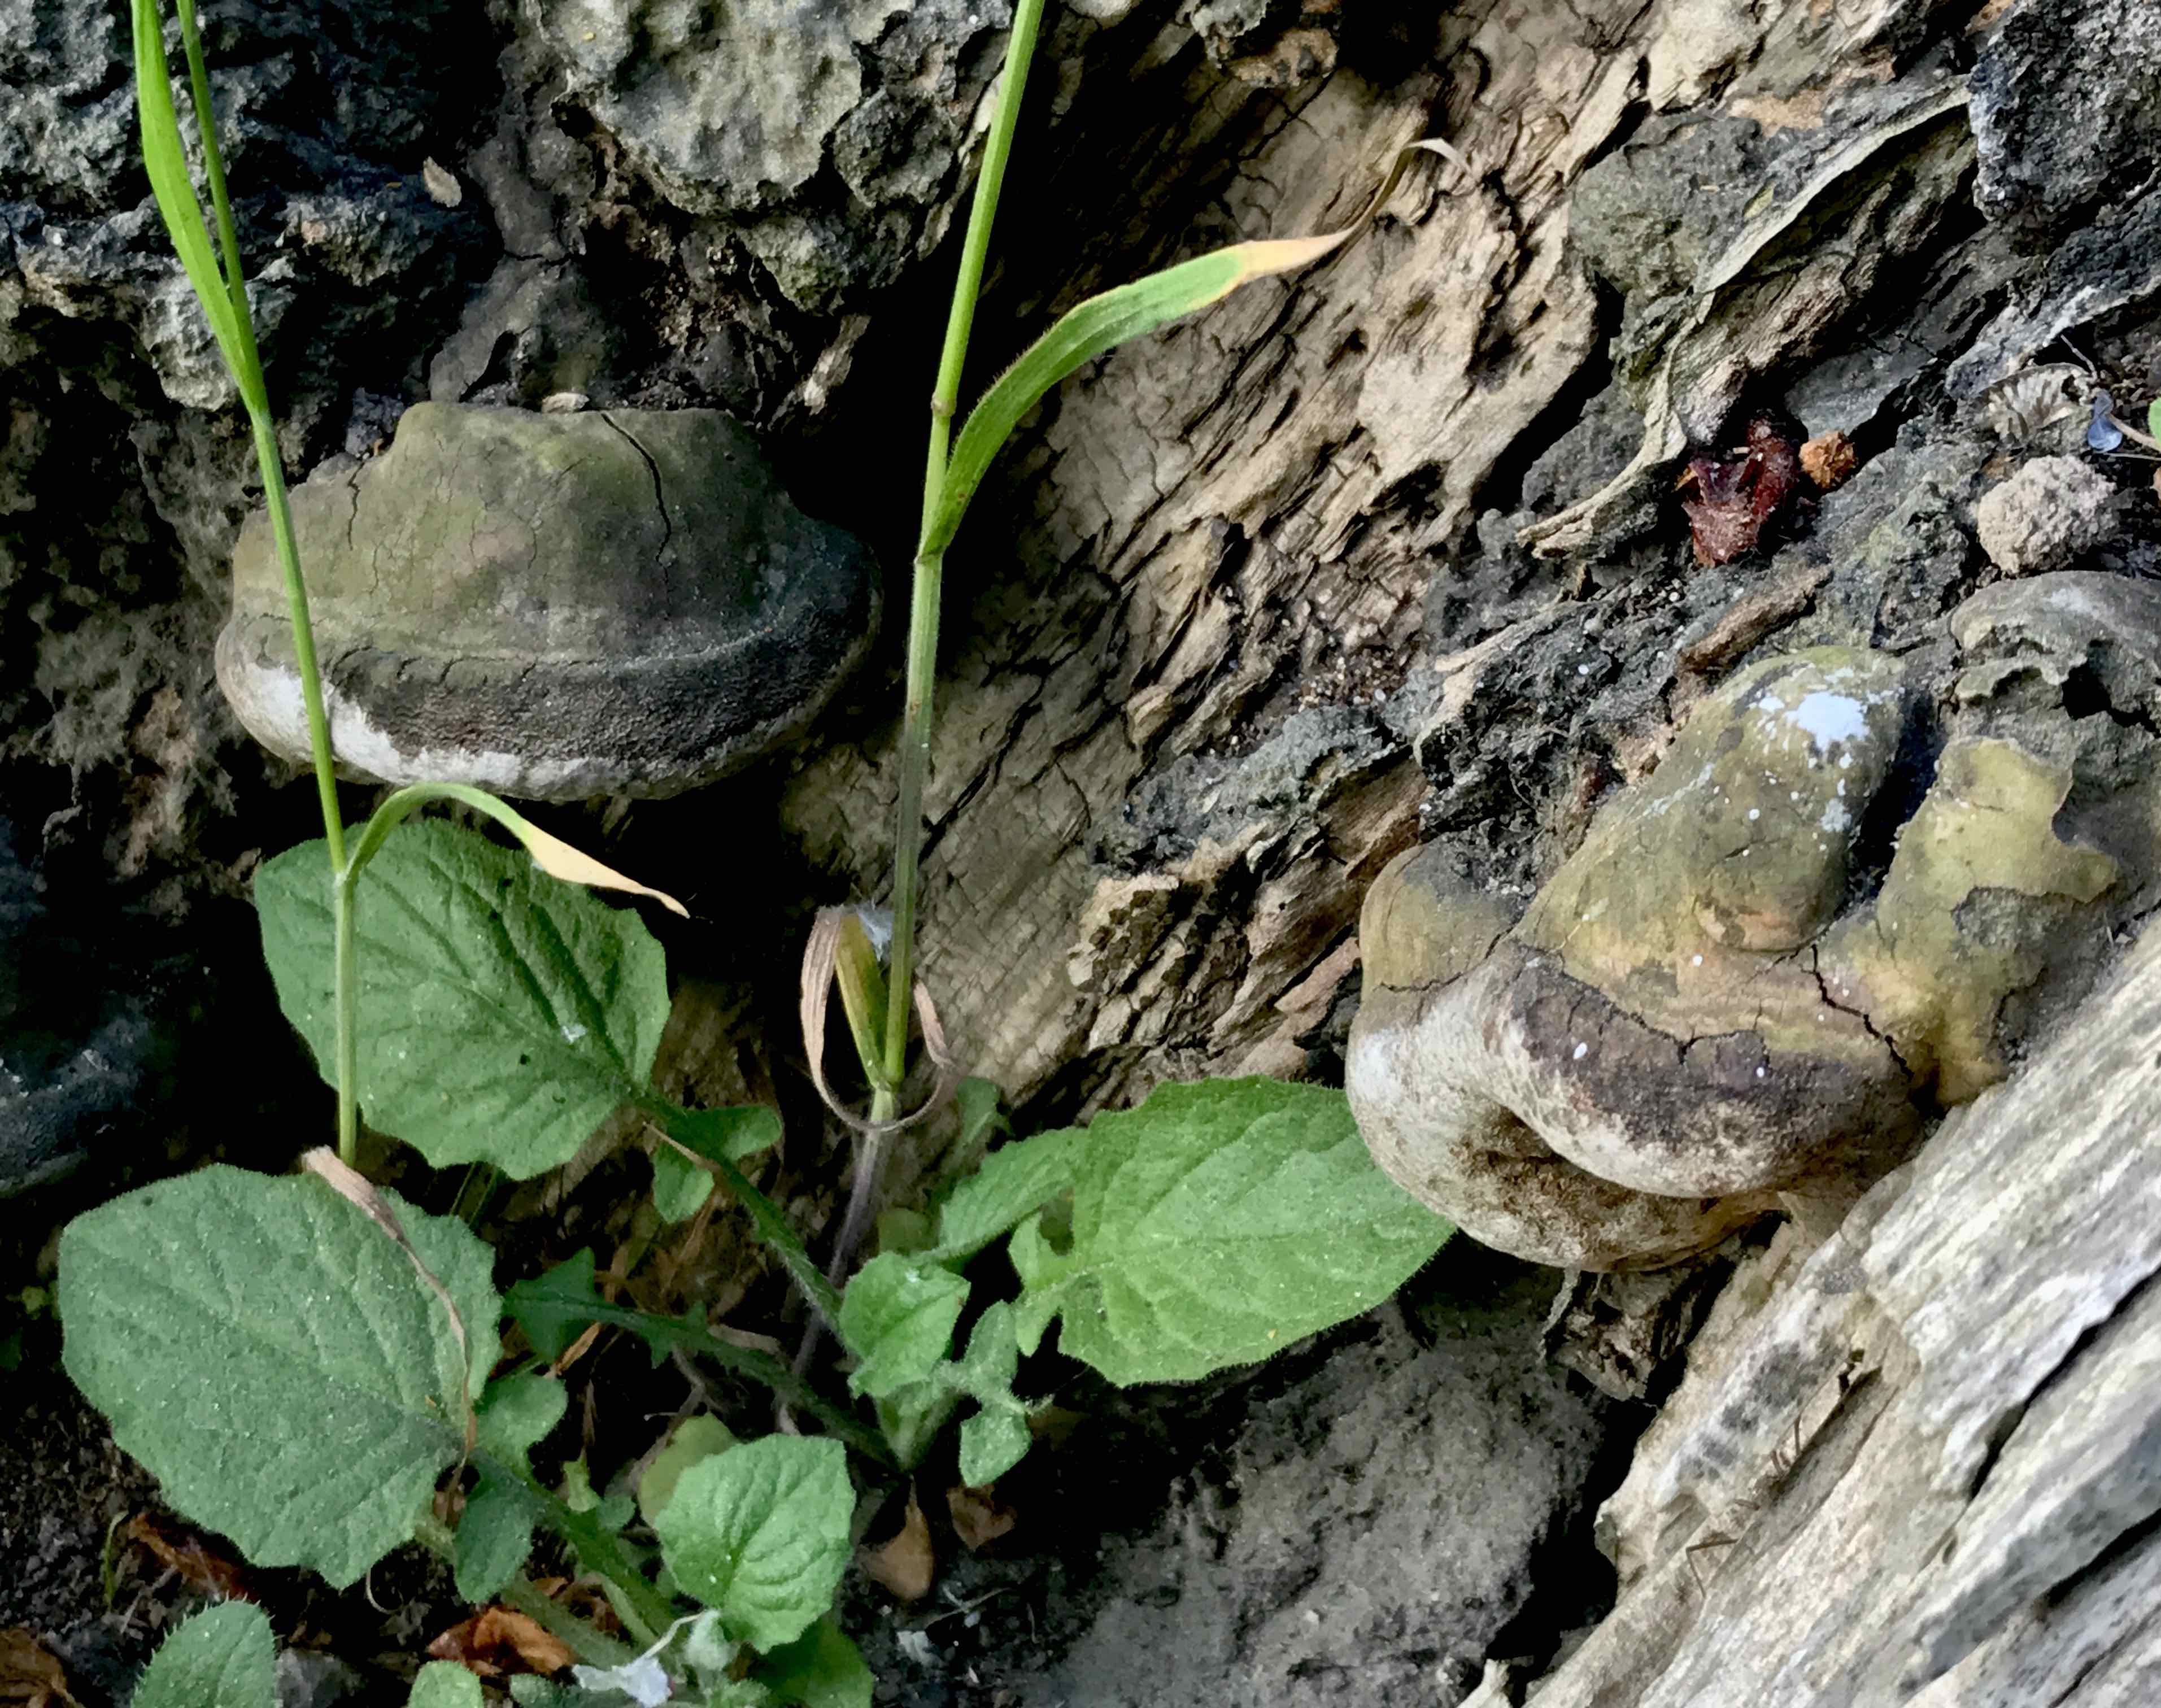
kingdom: Fungi
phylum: Basidiomycota
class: Agaricomycetes
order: Polyporales
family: Polyporaceae
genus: Ganoderma
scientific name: Ganoderma adspersum
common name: grov lakporesvamp
